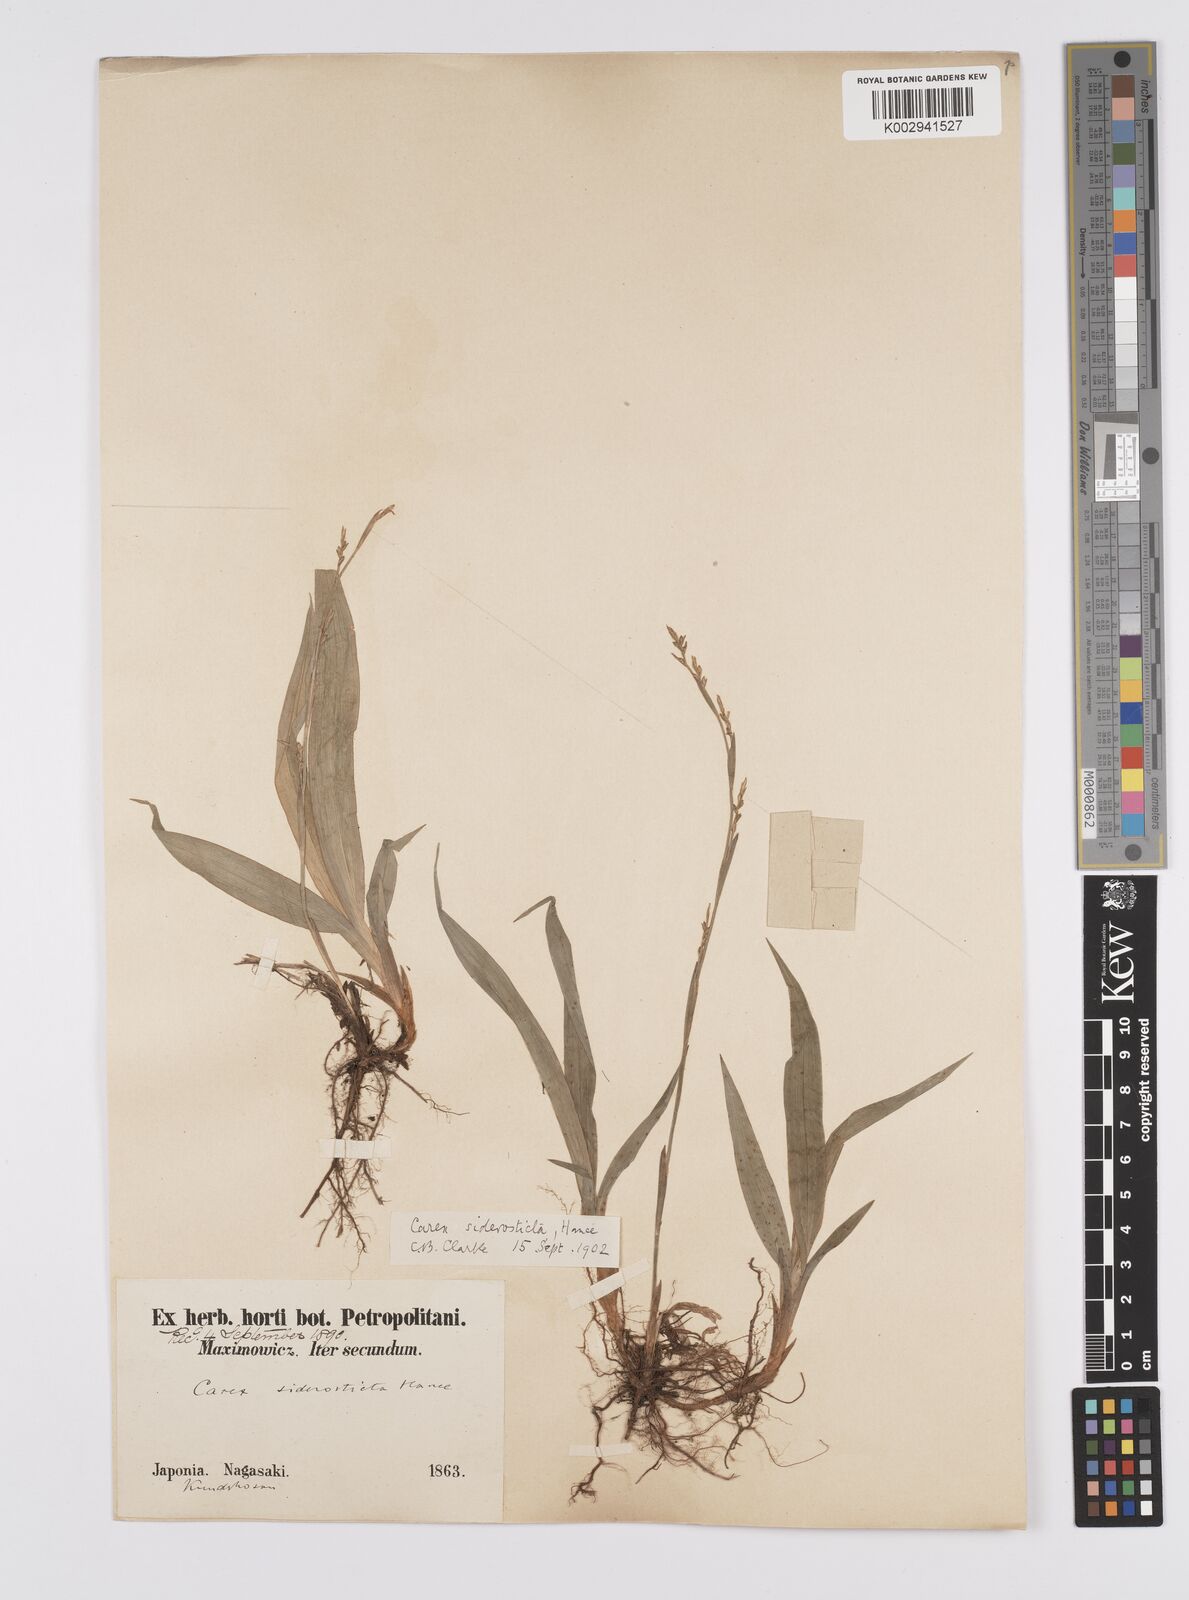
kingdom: Plantae
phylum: Tracheophyta
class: Liliopsida
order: Poales
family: Cyperaceae
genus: Carex
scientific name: Carex siderosticta
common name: Broadleaf sedge
